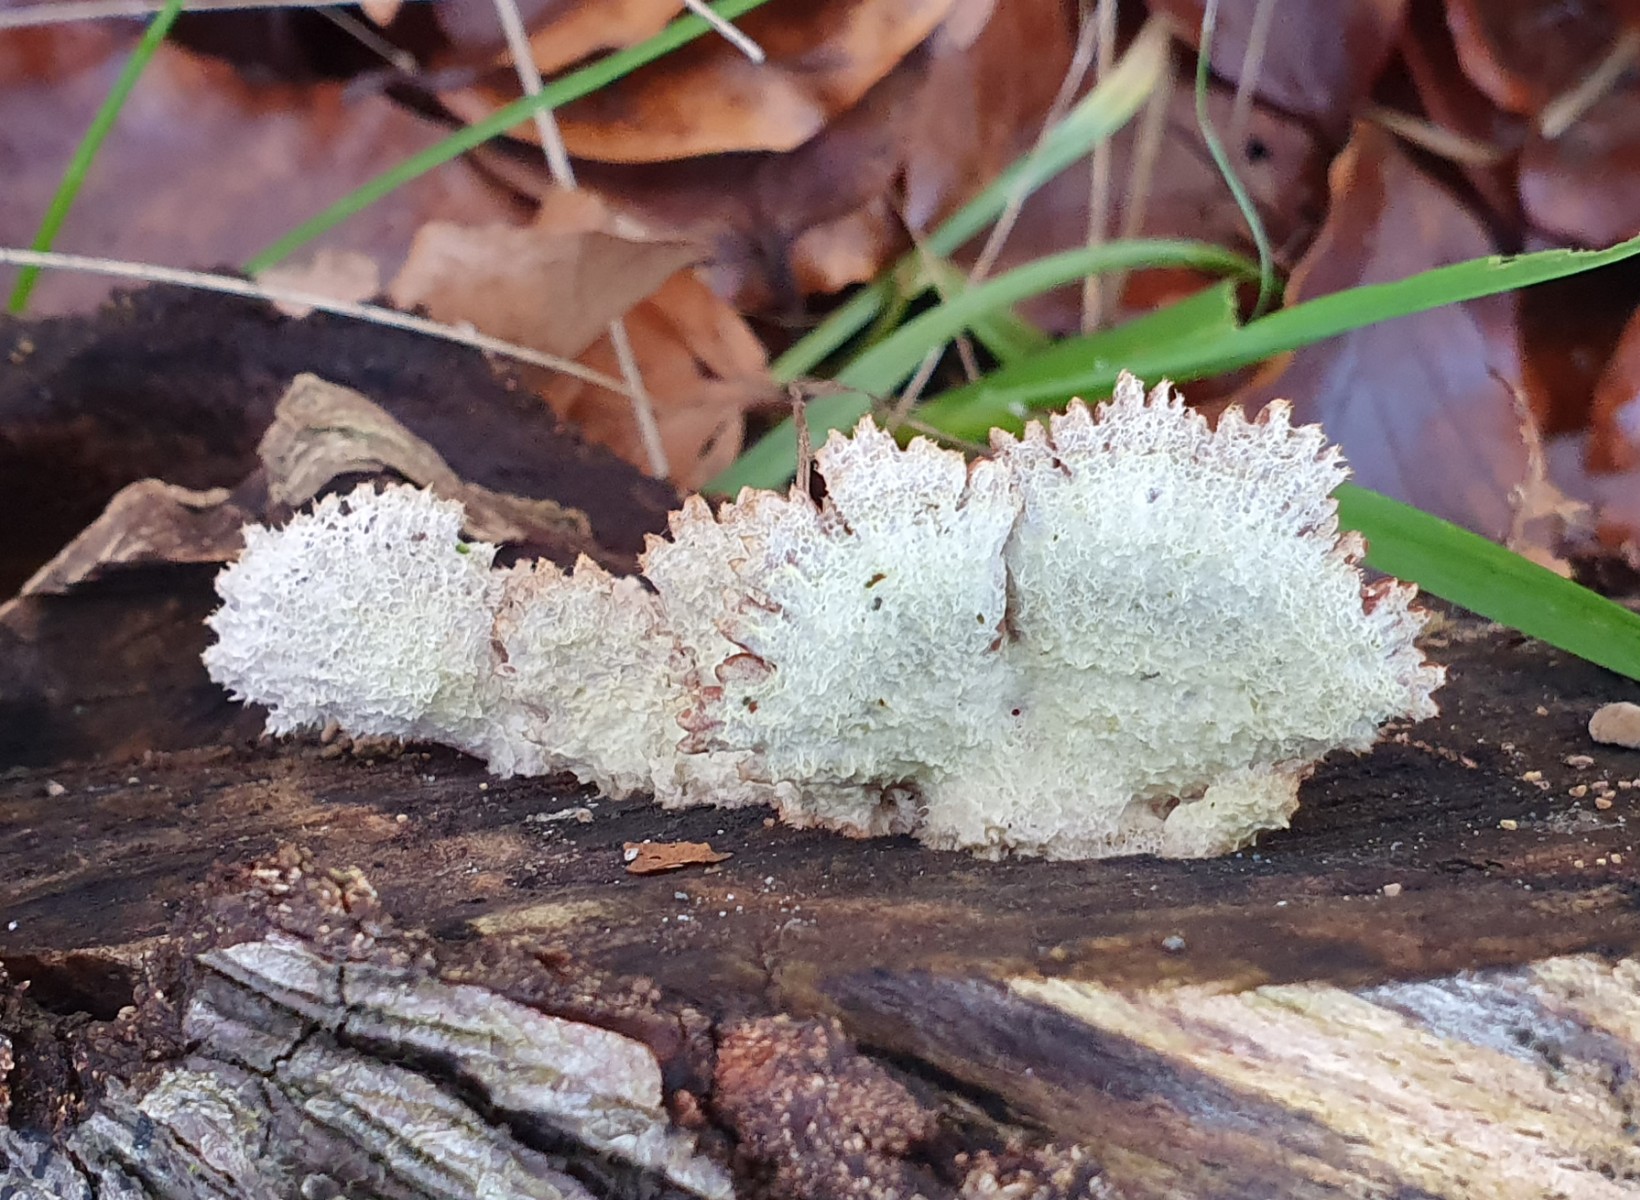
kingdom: Fungi
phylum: Basidiomycota
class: Agaricomycetes
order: Agaricales
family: Schizophyllaceae
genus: Schizophyllum
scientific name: Schizophyllum commune
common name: kløvblad
